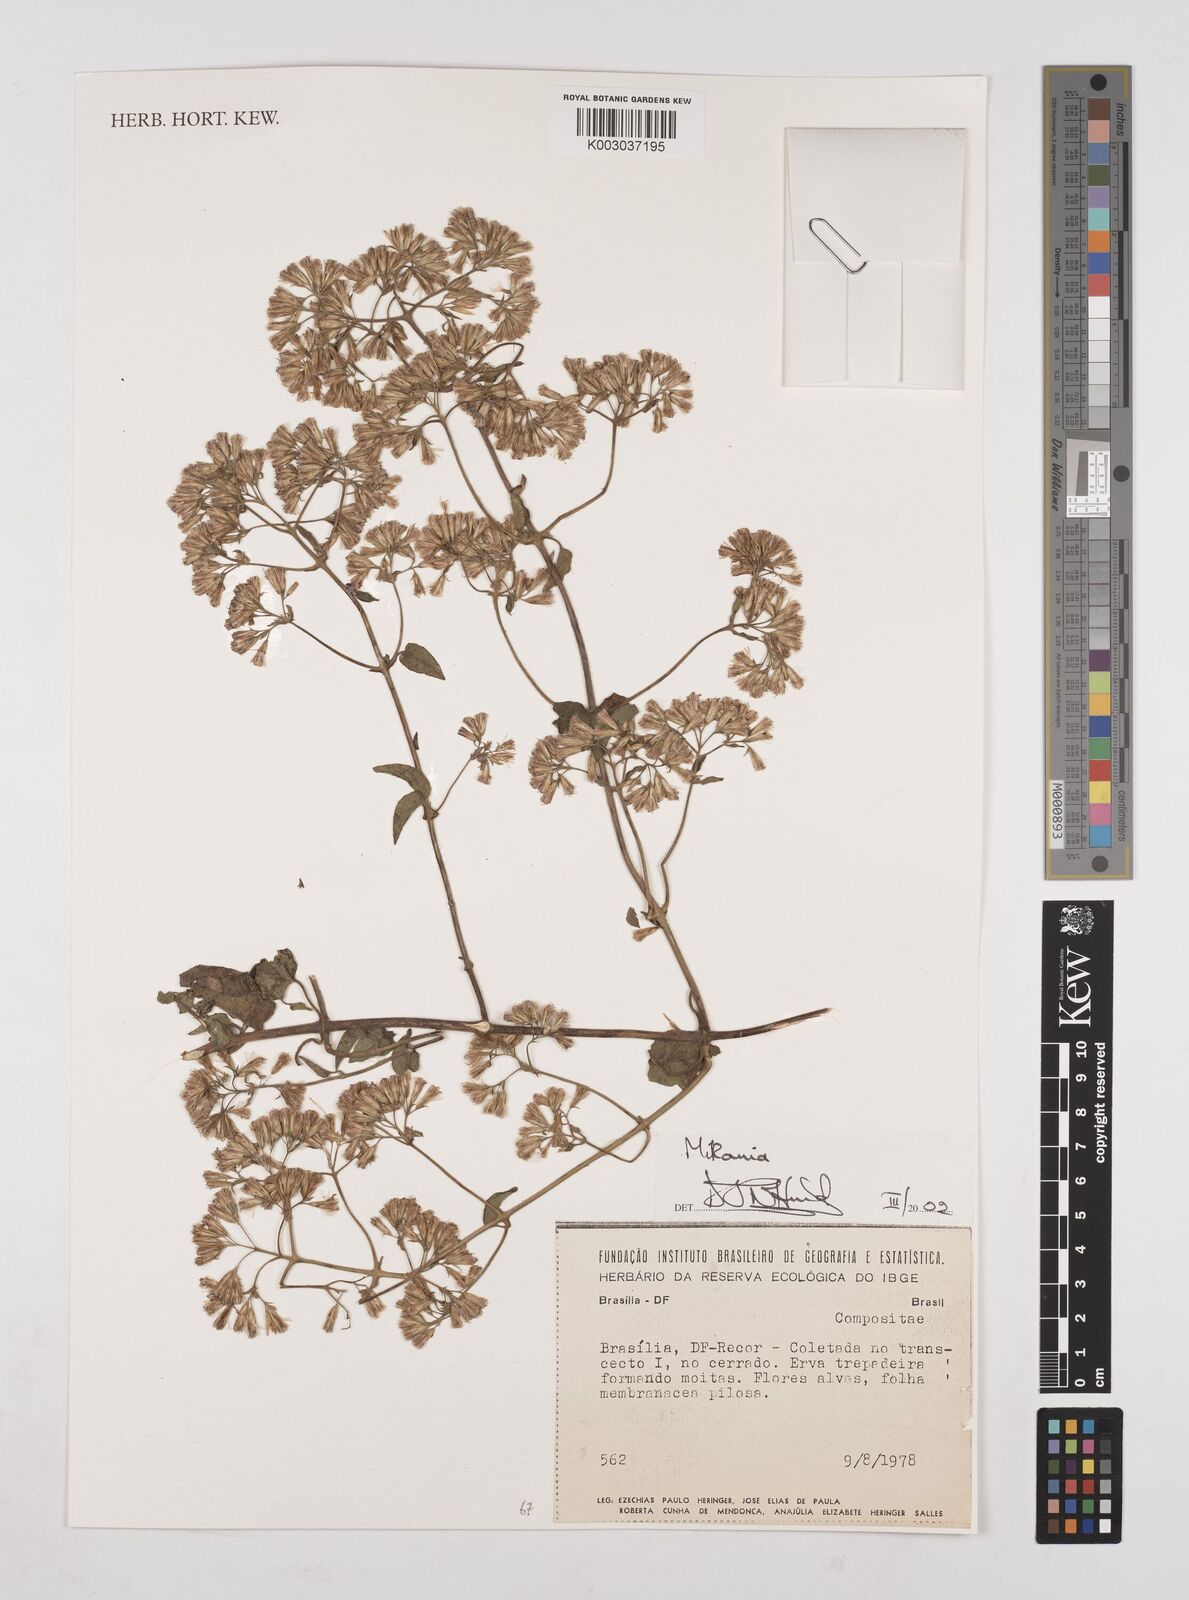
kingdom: Plantae
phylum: Tracheophyta
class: Magnoliopsida
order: Asterales
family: Asteraceae
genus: Mikania
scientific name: Mikania
